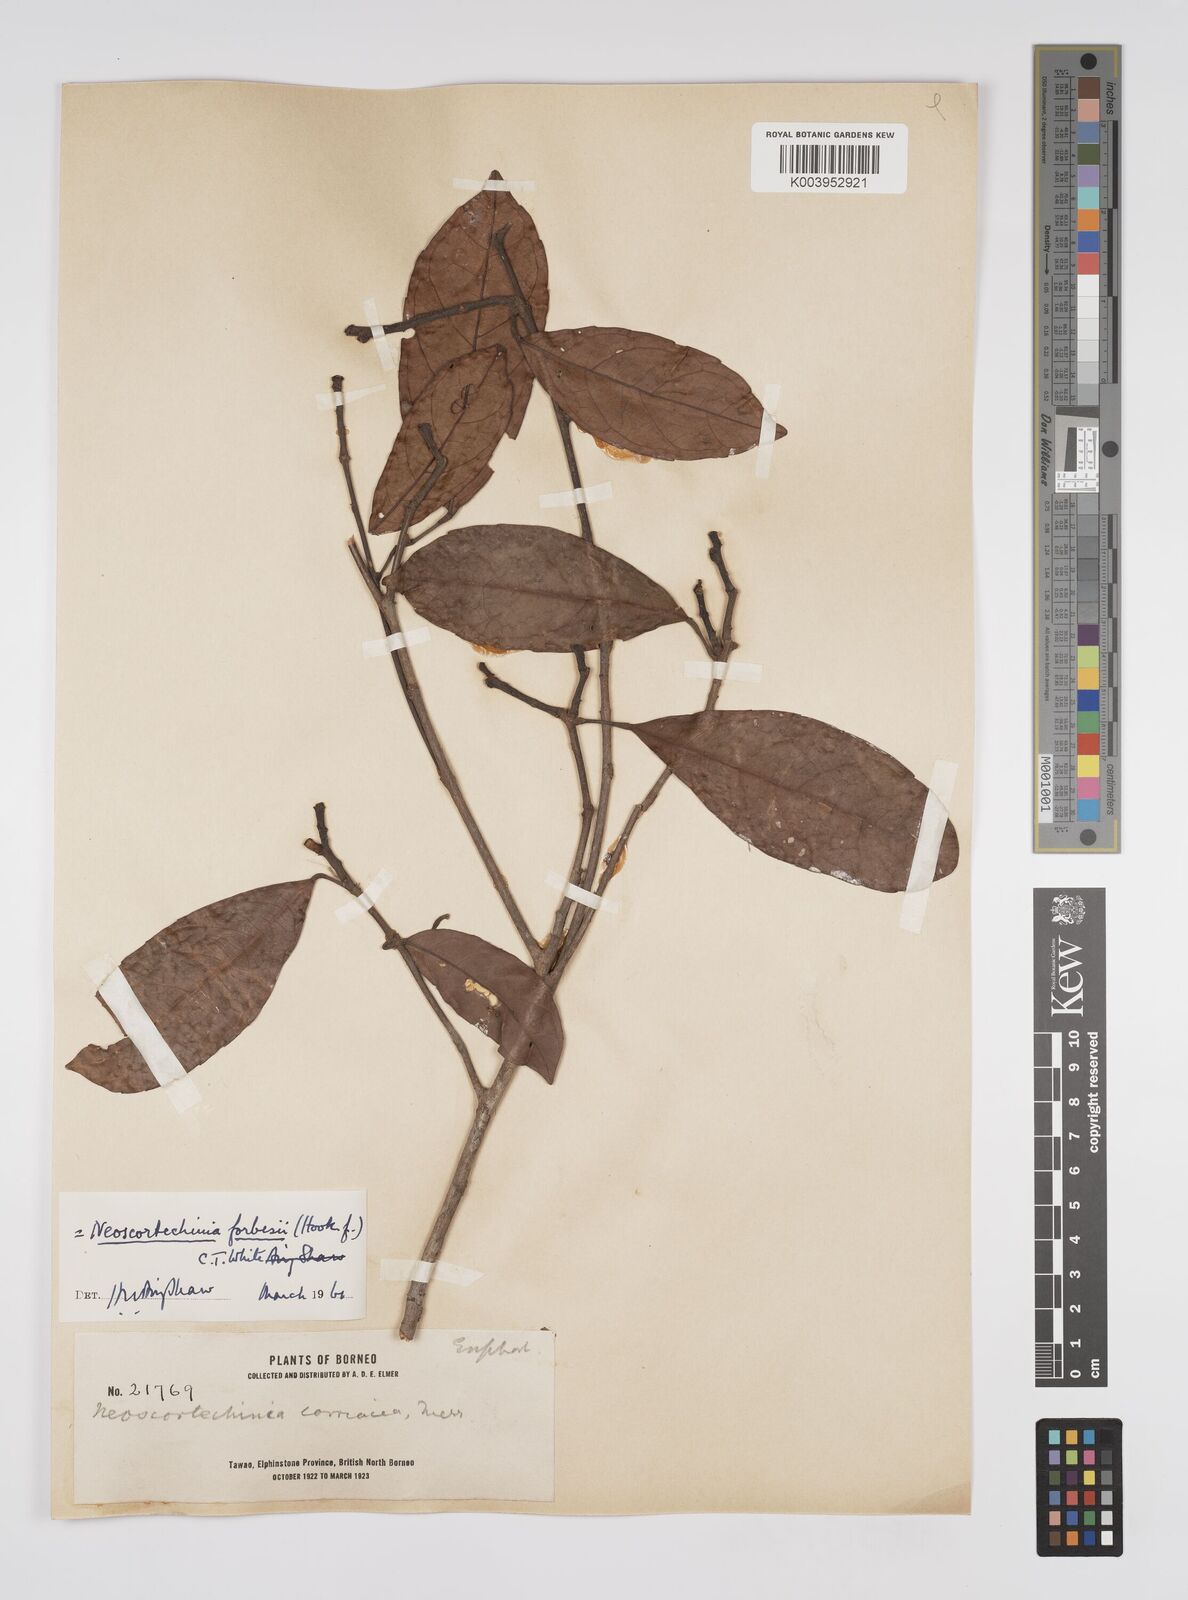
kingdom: Plantae
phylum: Tracheophyta
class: Magnoliopsida
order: Malpighiales
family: Euphorbiaceae
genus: Neoscortechinia
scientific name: Neoscortechinia philippinensis
